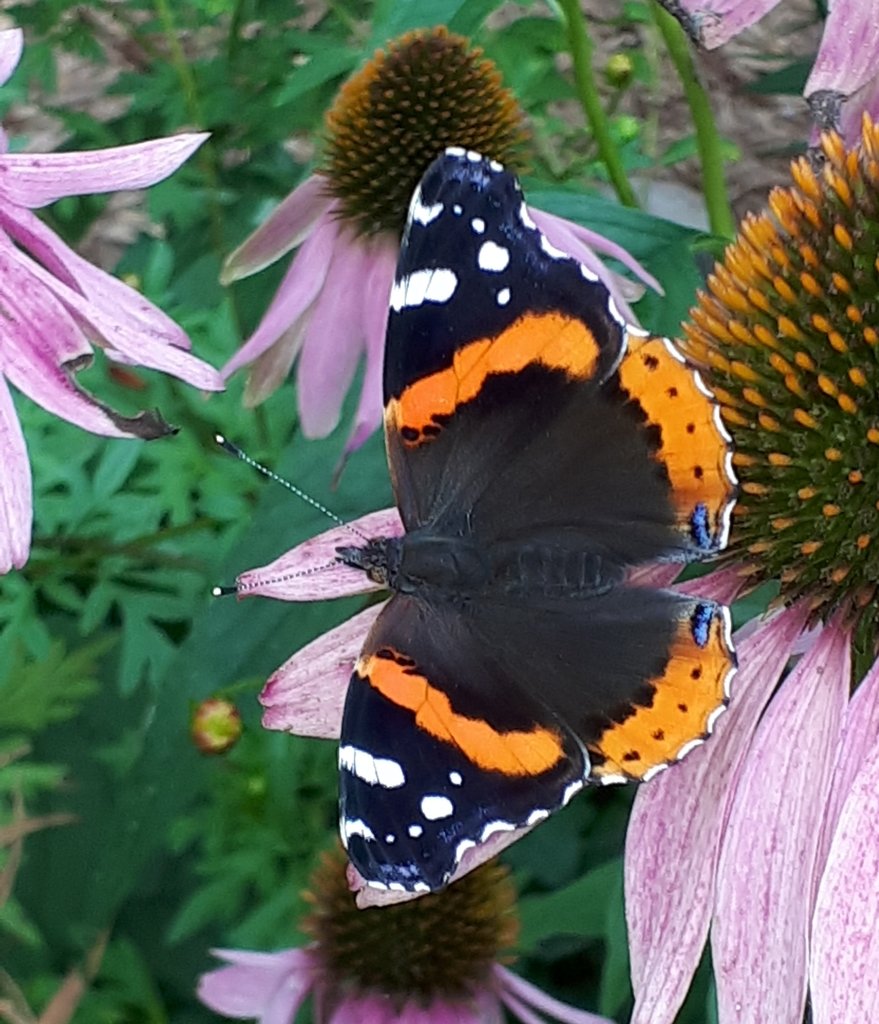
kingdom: Animalia
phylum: Arthropoda
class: Insecta
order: Lepidoptera
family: Nymphalidae
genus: Vanessa
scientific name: Vanessa atalanta
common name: Red Admiral
